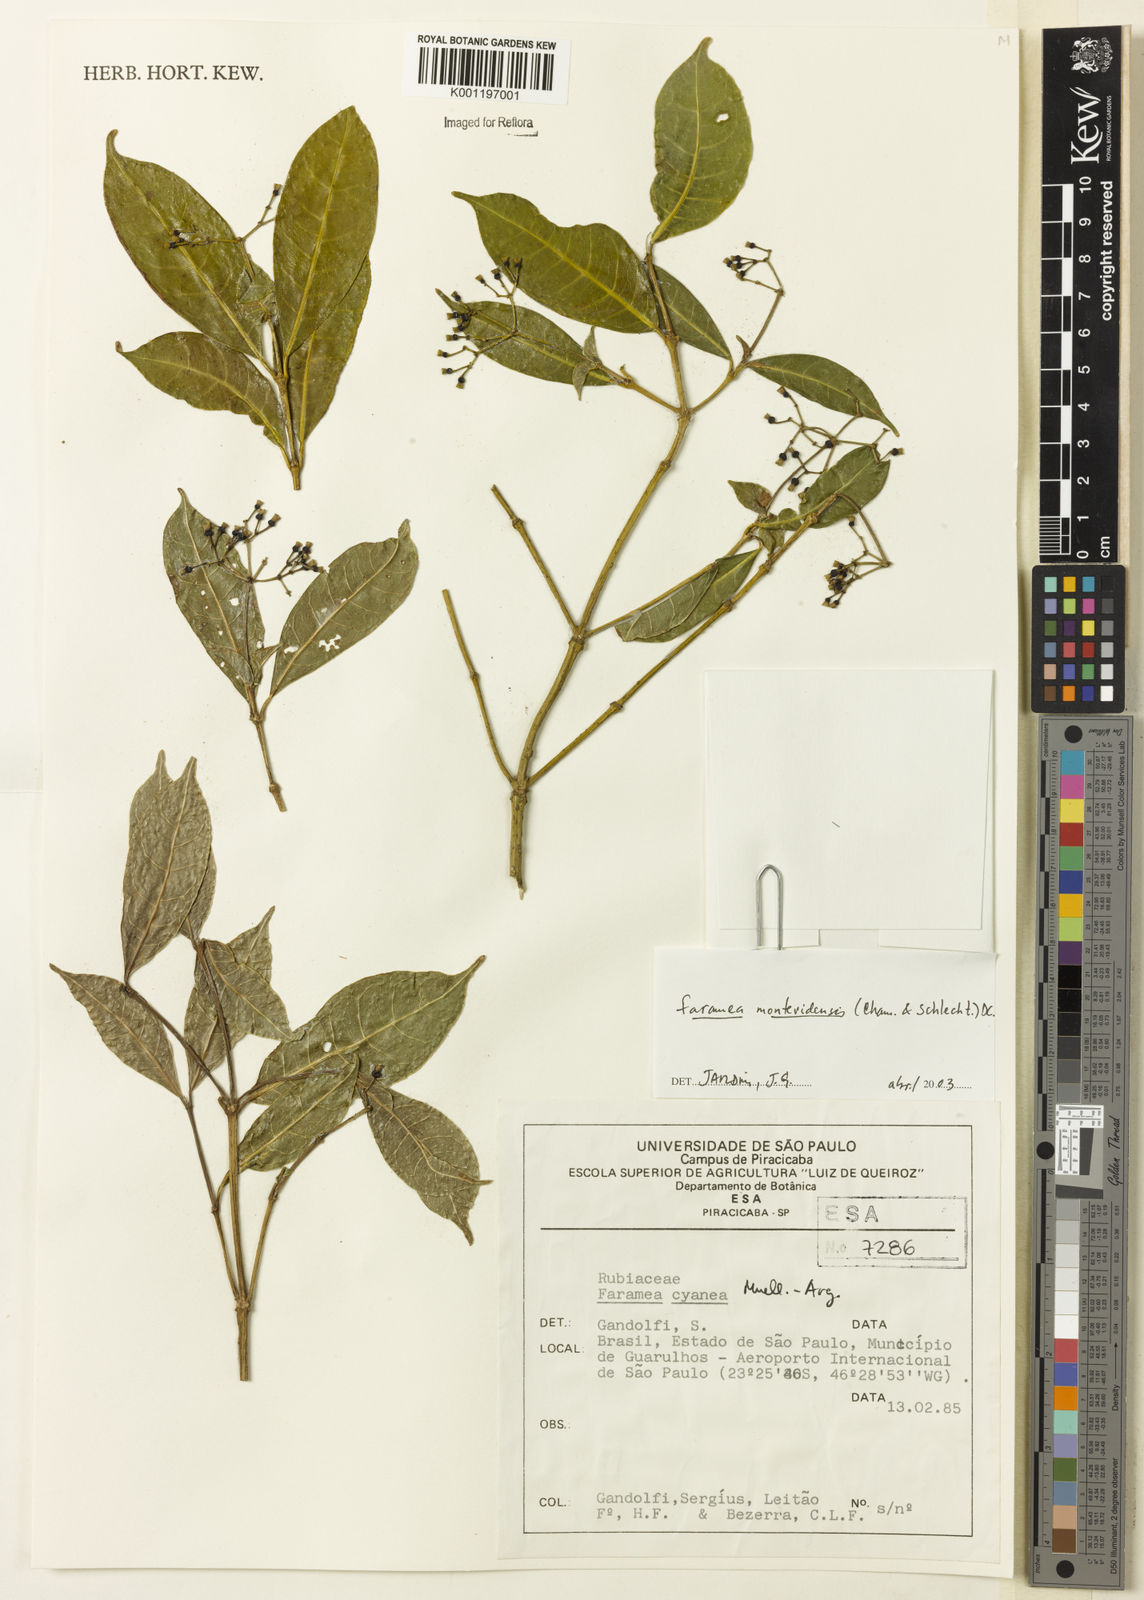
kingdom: Plantae
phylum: Tracheophyta
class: Magnoliopsida
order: Gentianales
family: Rubiaceae
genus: Faramea
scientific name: Faramea montevidensis
